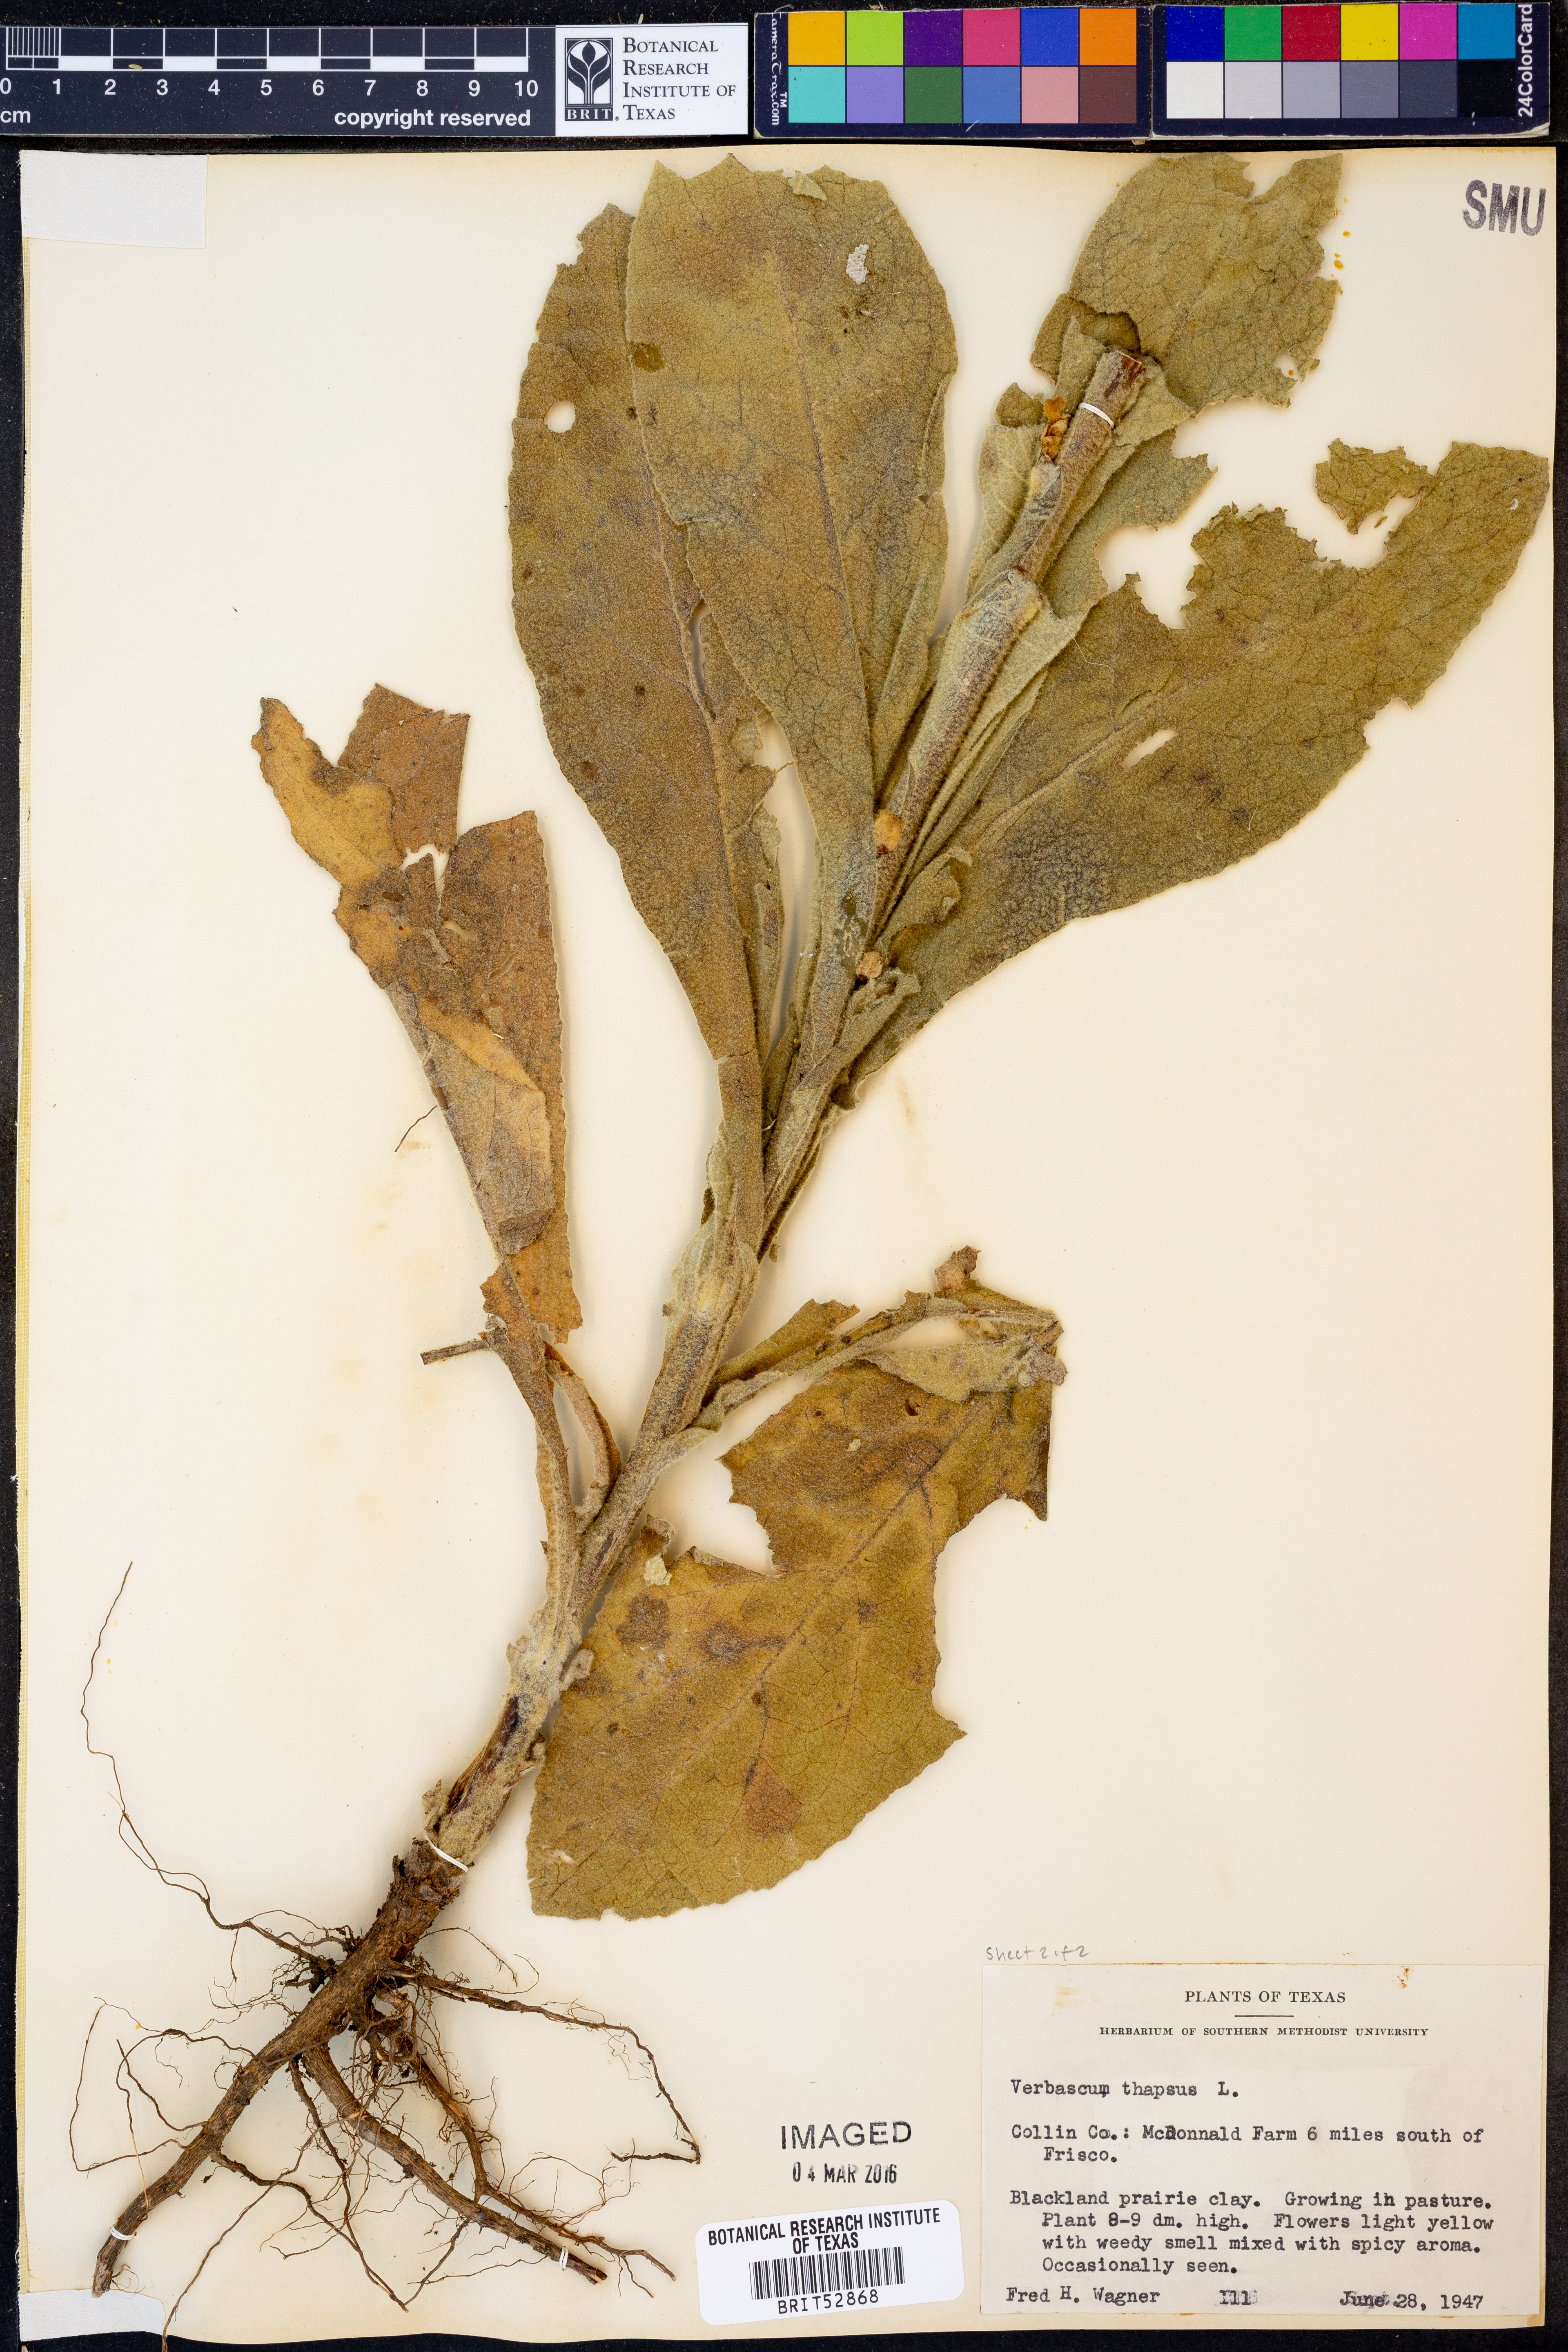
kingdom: Plantae
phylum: Tracheophyta
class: Magnoliopsida
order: Lamiales
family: Scrophulariaceae
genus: Verbascum
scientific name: Verbascum thapsus
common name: Common mullein
